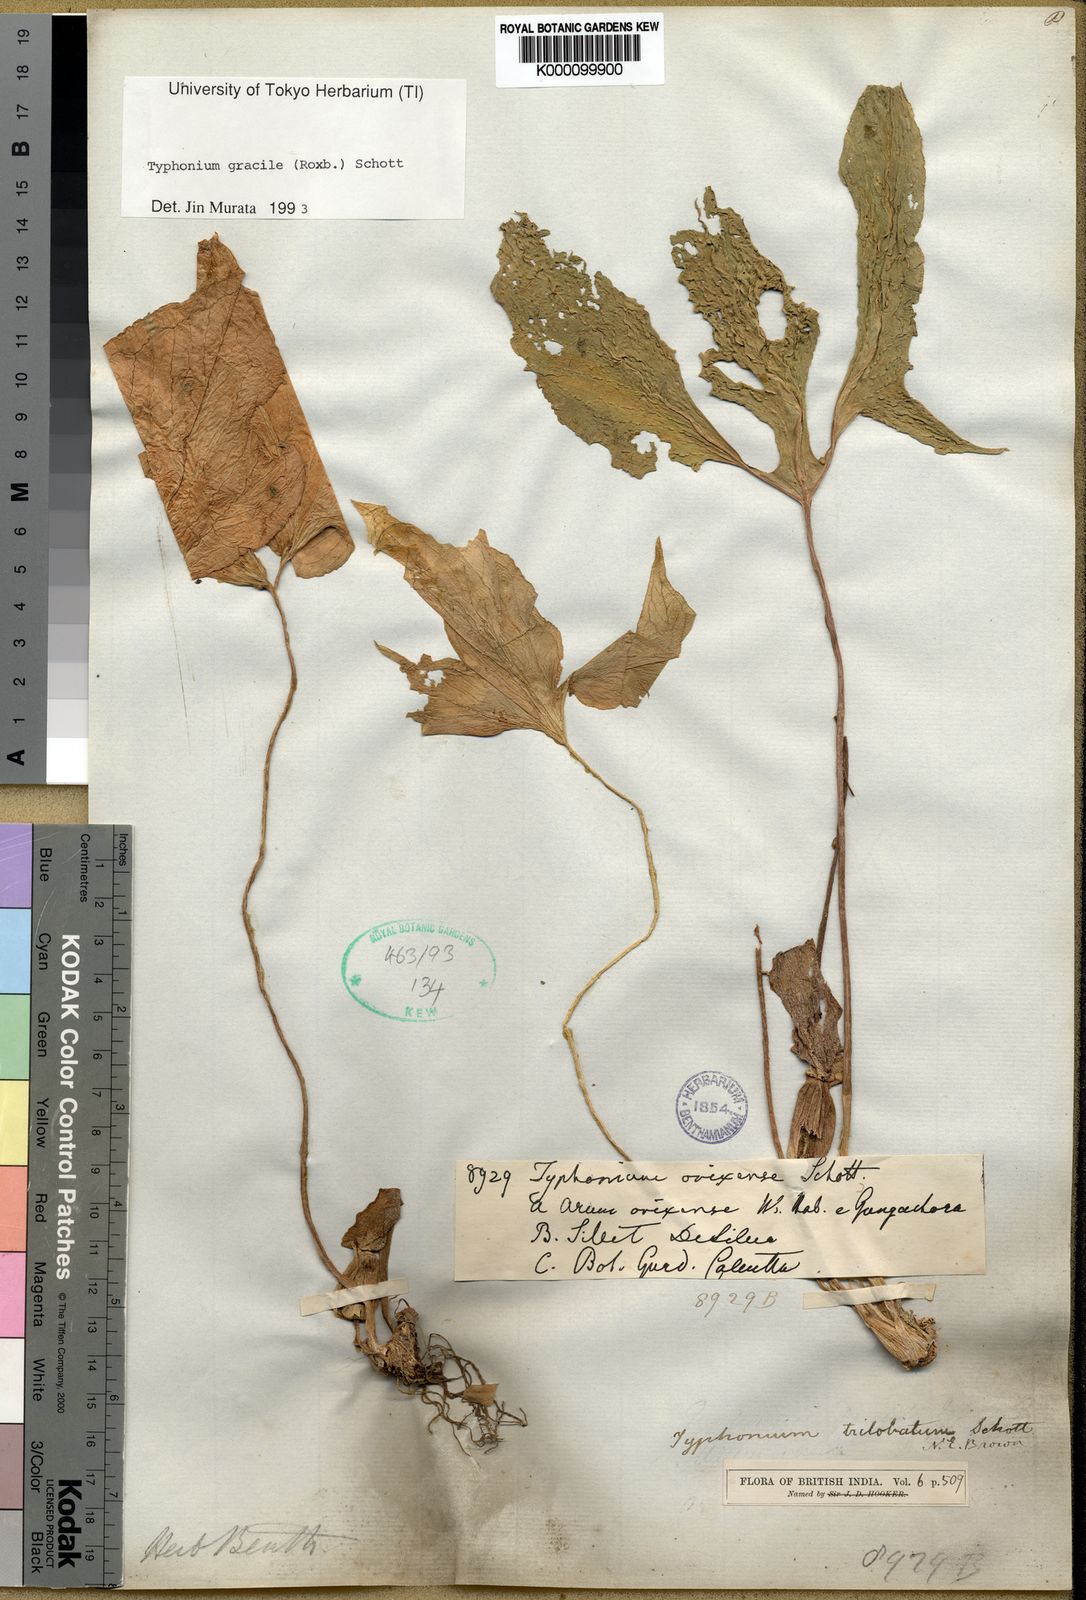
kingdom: Plantae
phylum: Tracheophyta
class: Liliopsida
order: Alismatales
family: Araceae
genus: Typhonium
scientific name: Typhonium gracile
